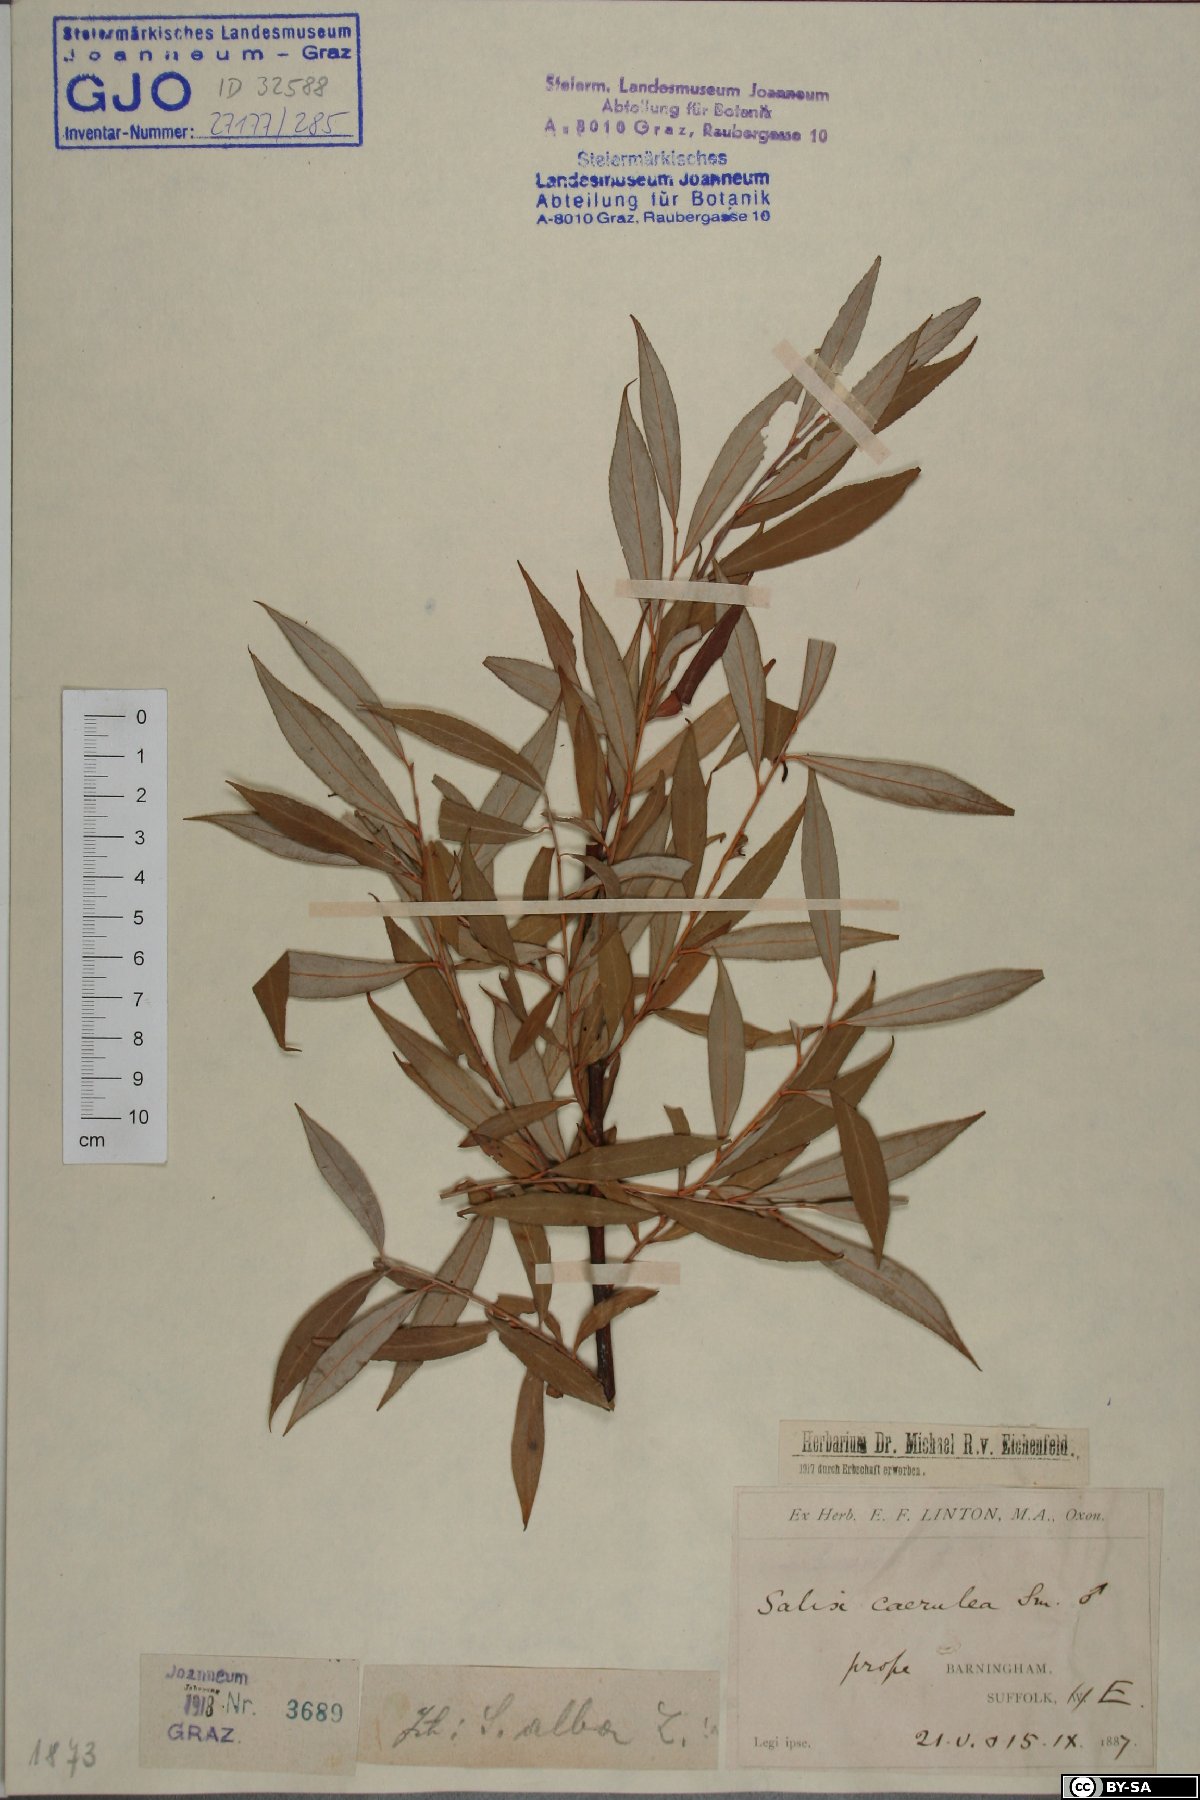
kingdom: Plantae
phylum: Tracheophyta
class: Magnoliopsida
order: Malpighiales
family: Salicaceae
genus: Salix
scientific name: Salix alba
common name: White willow
